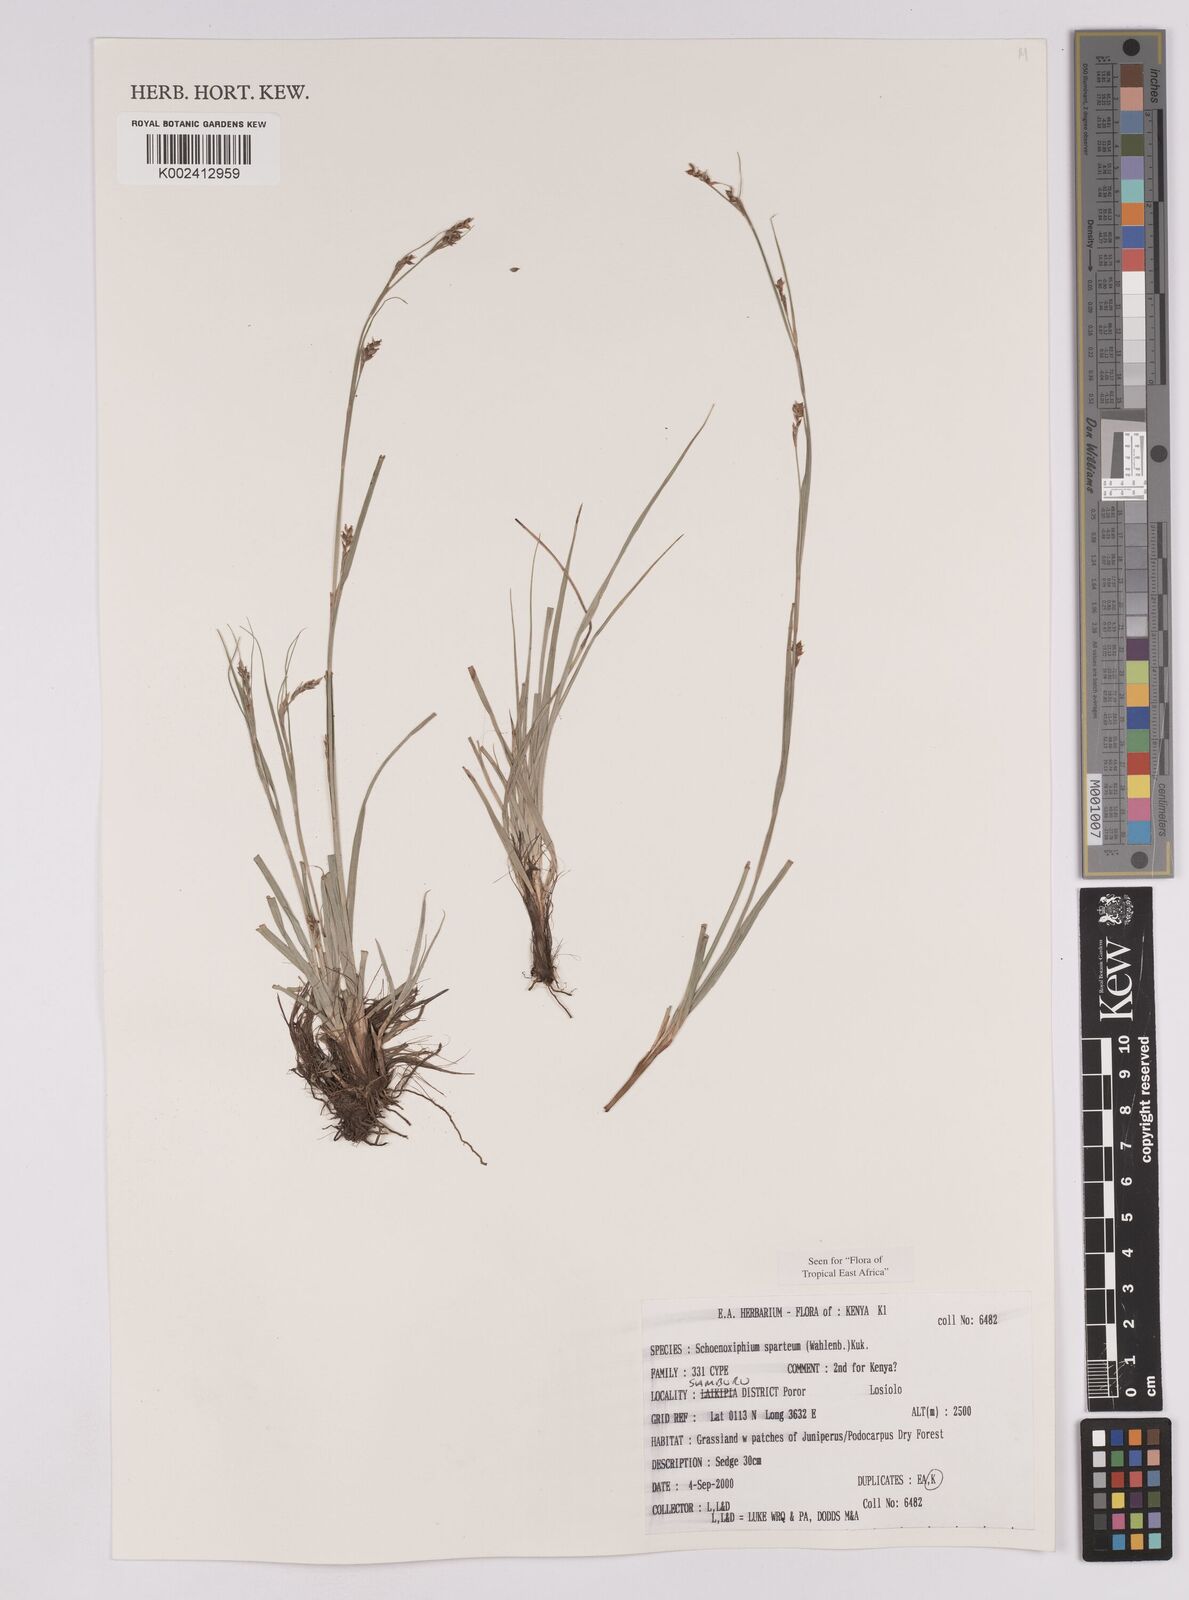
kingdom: Plantae
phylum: Tracheophyta
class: Liliopsida
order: Poales
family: Cyperaceae
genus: Carex
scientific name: Carex schimperiana
